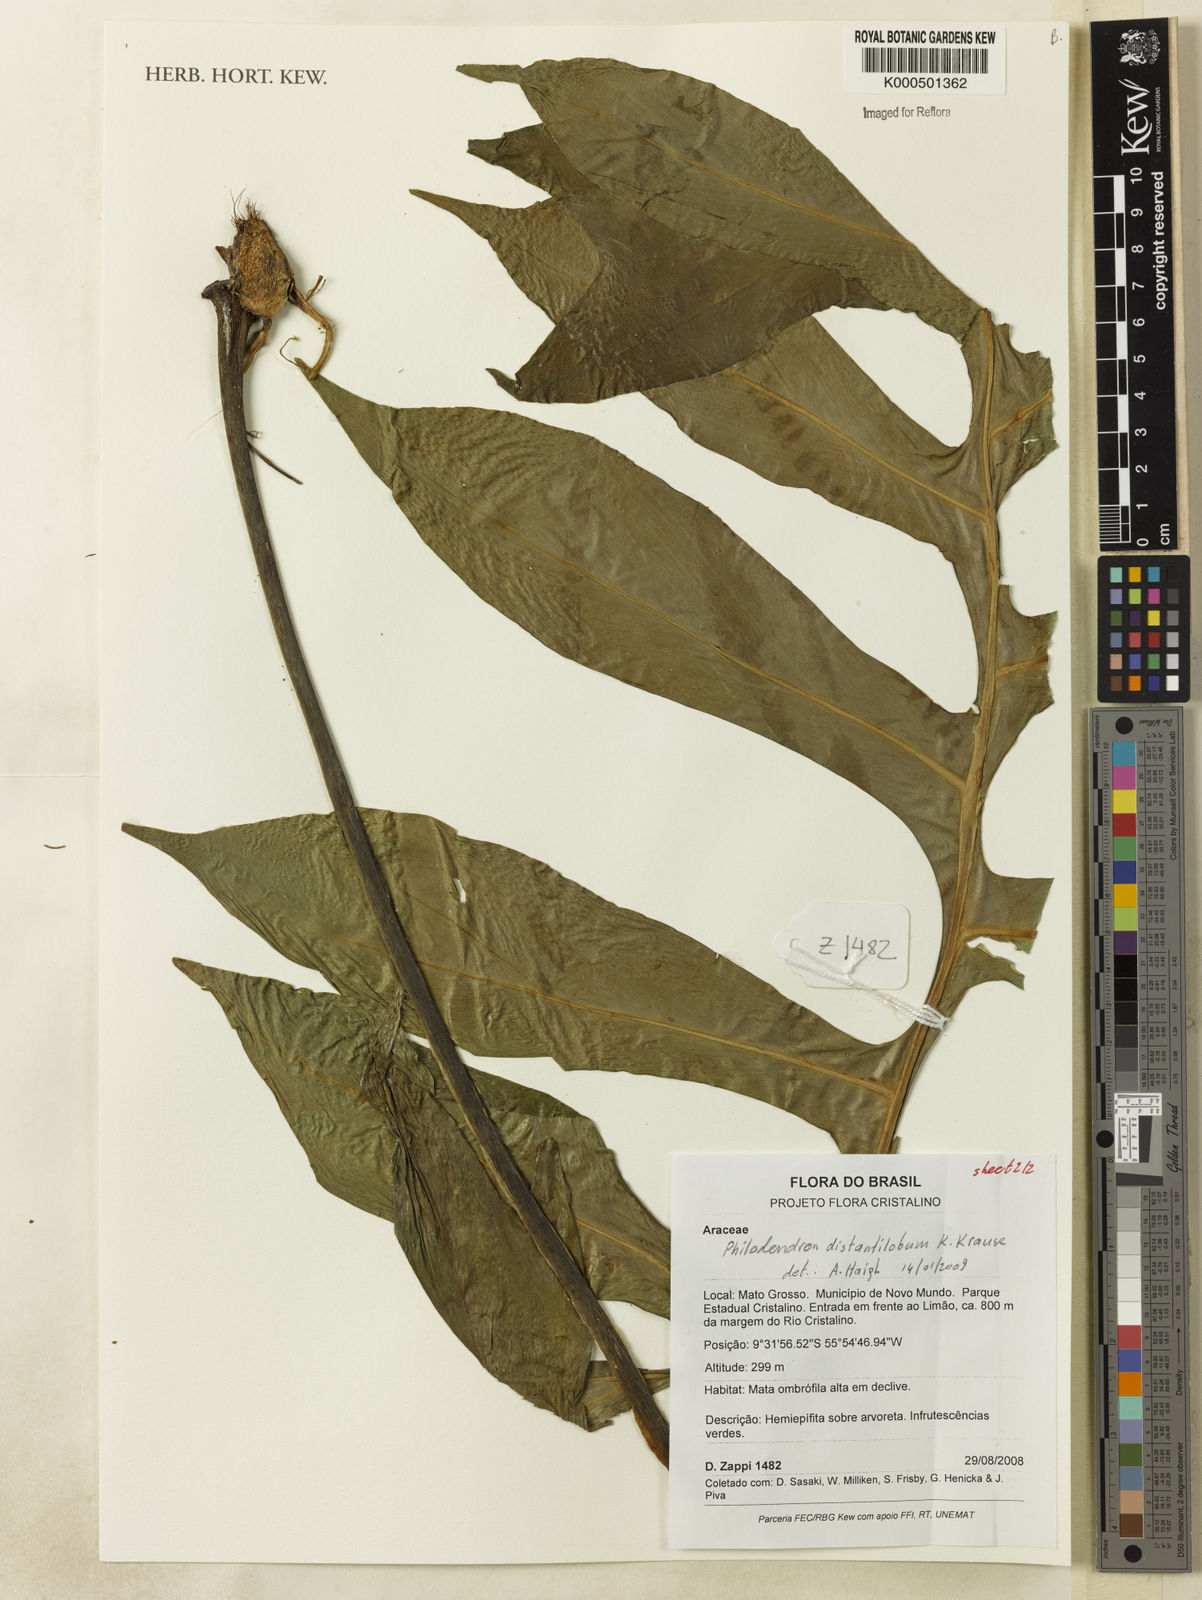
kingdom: Plantae
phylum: Tracheophyta
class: Liliopsida
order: Alismatales
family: Araceae
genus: Philodendron
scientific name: Philodendron
